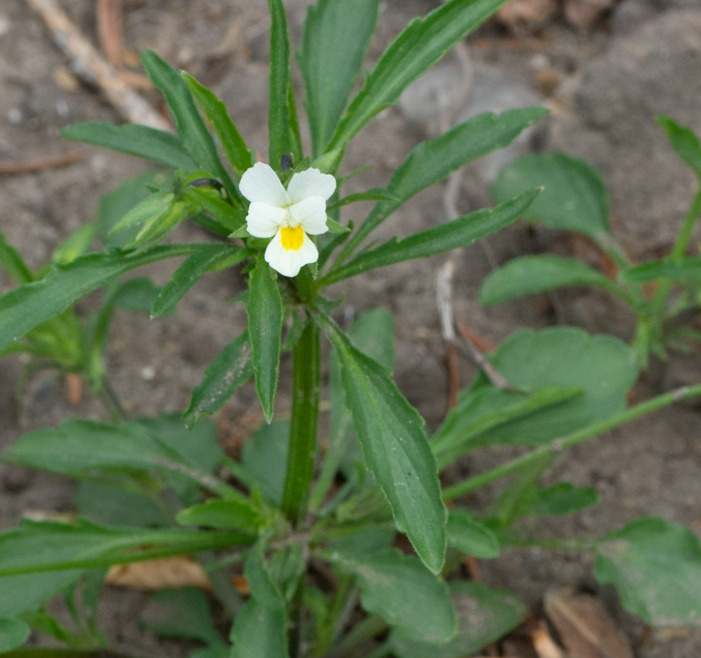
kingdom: Plantae
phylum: Tracheophyta
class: Magnoliopsida
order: Malpighiales
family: Violaceae
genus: Viola
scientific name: Viola arvensis
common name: Ager-stedmoderblomst
